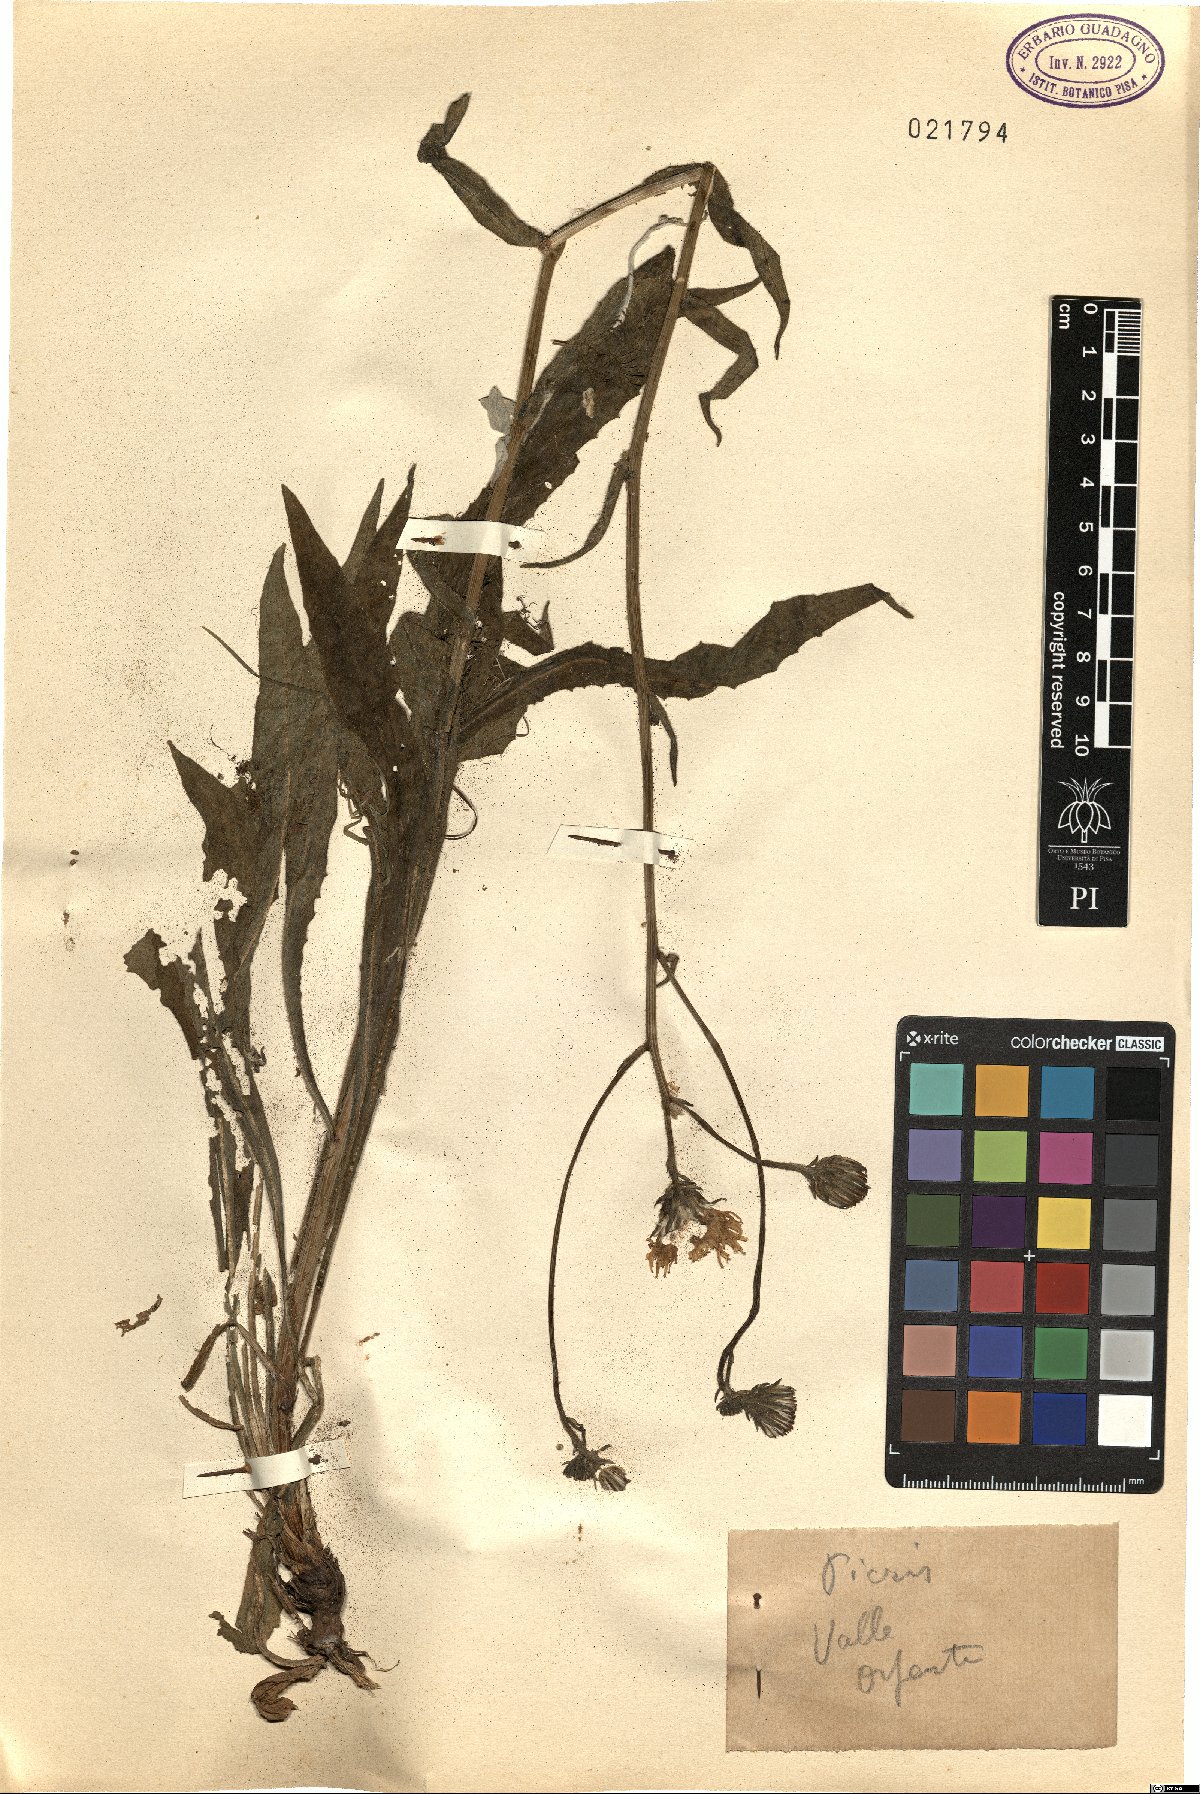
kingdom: Plantae
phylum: Tracheophyta
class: Magnoliopsida
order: Asterales
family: Asteraceae
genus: Picris
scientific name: Picris
